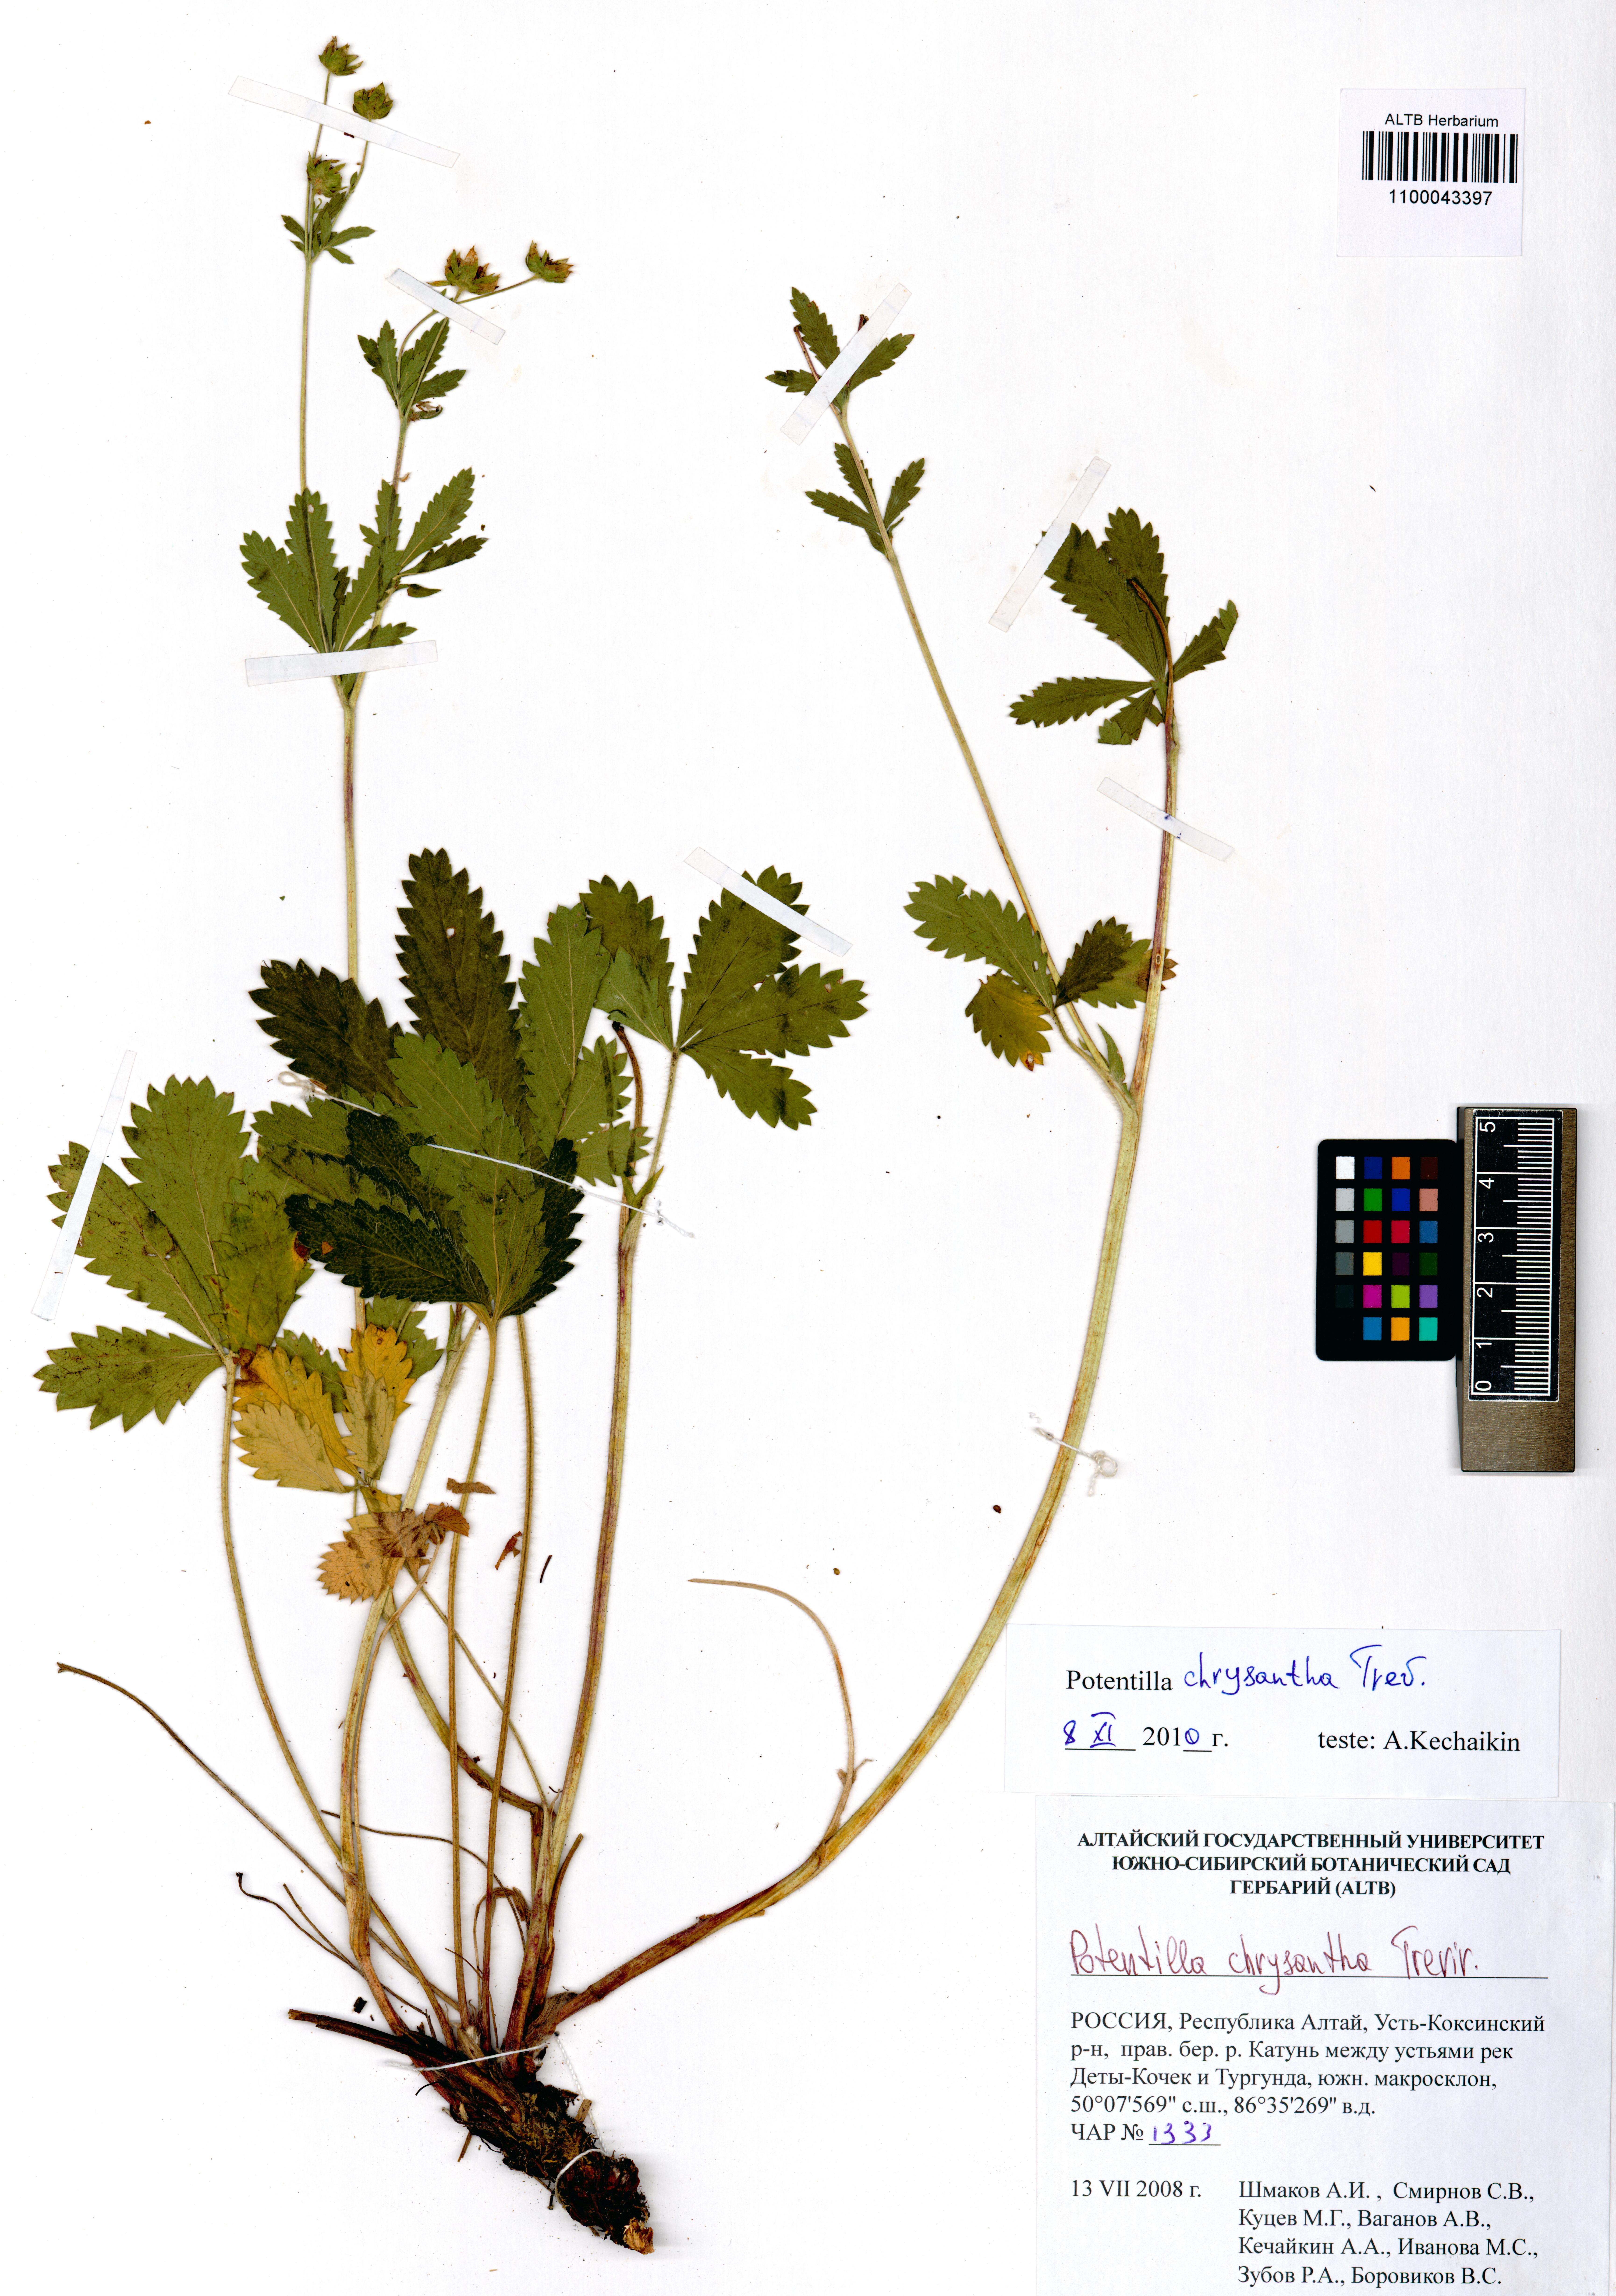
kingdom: Plantae
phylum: Tracheophyta
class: Magnoliopsida
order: Rosales
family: Rosaceae
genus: Potentilla
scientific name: Potentilla chrysantha
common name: Thuringian cinquefoil
